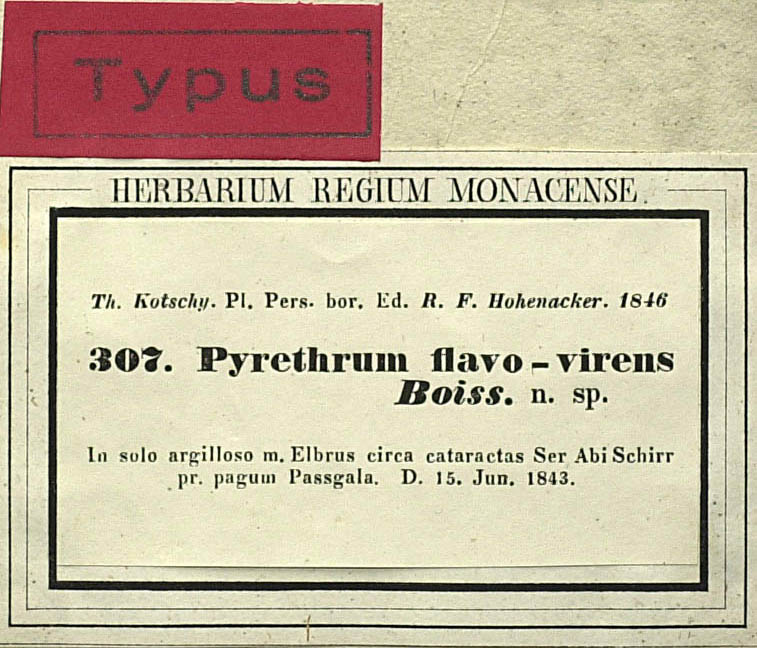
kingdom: Plantae
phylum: Tracheophyta
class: Magnoliopsida
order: Asterales
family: Asteraceae
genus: Tanacetum
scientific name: Tanacetum pinnatum
